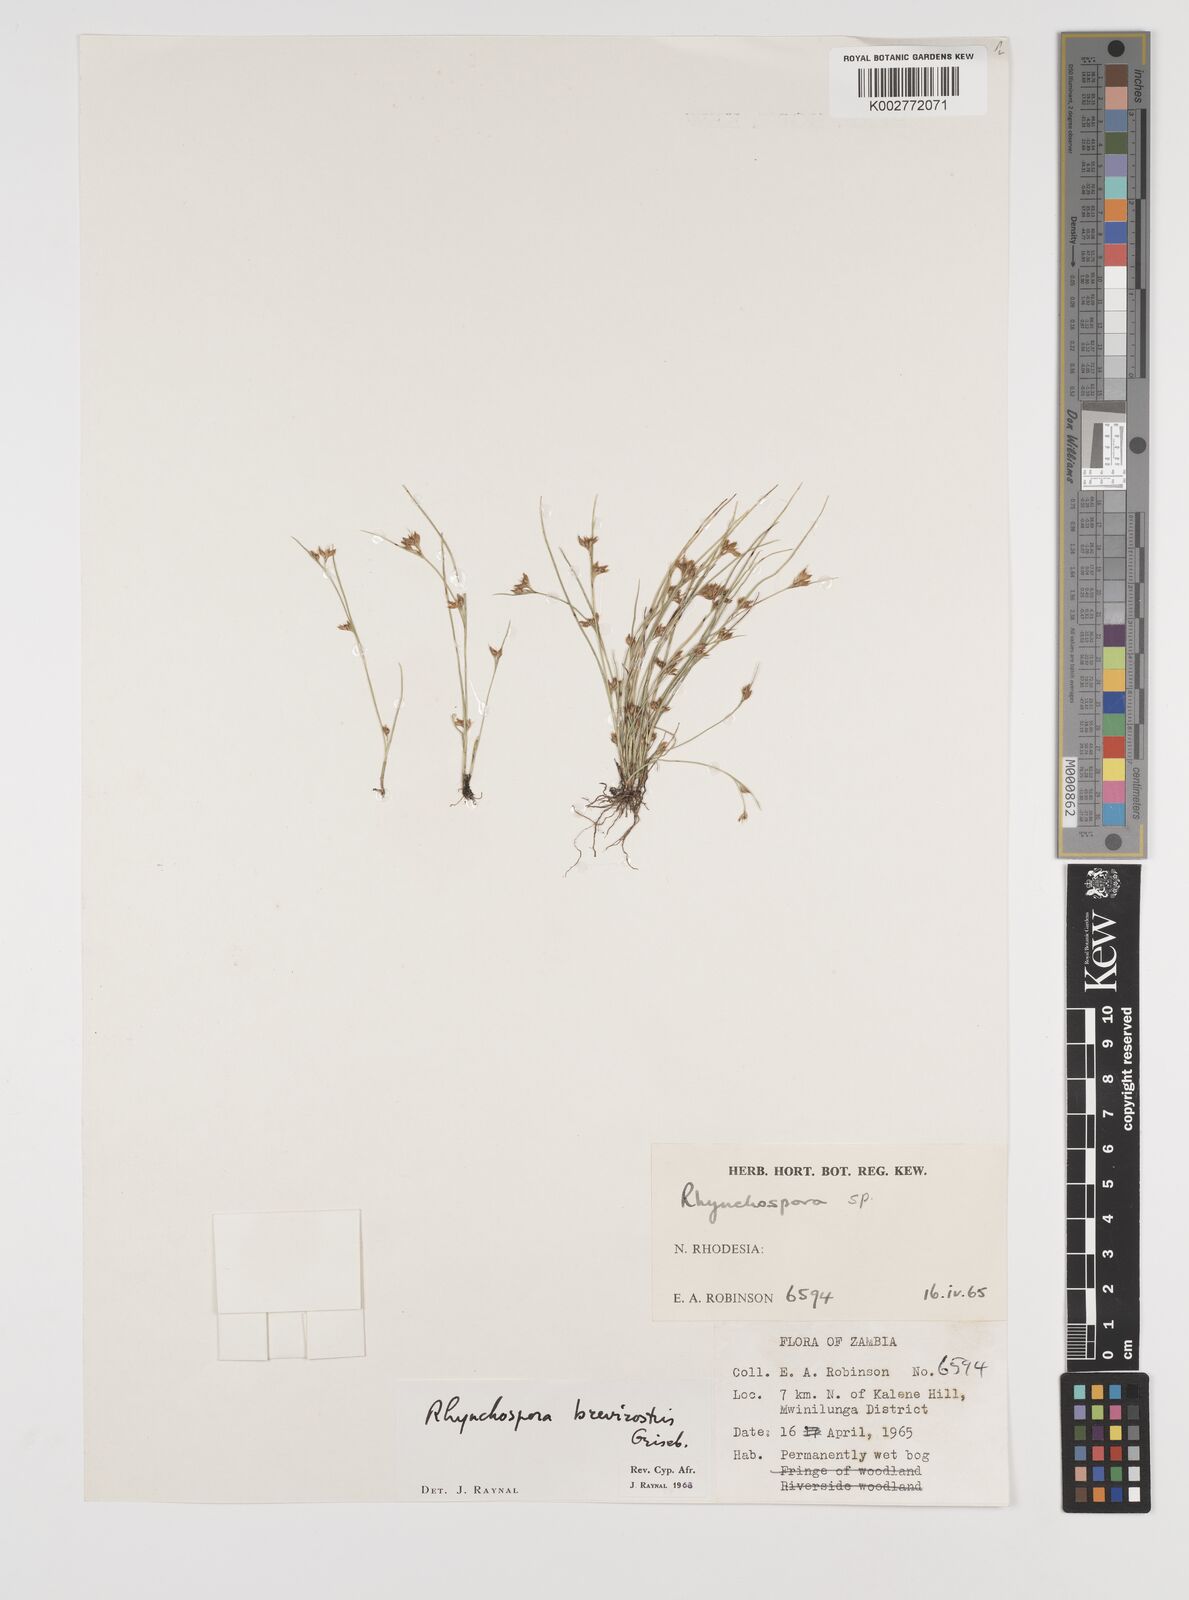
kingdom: Plantae
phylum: Tracheophyta
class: Liliopsida
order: Poales
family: Cyperaceae
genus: Rhynchospora
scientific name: Rhynchospora brevirostris
